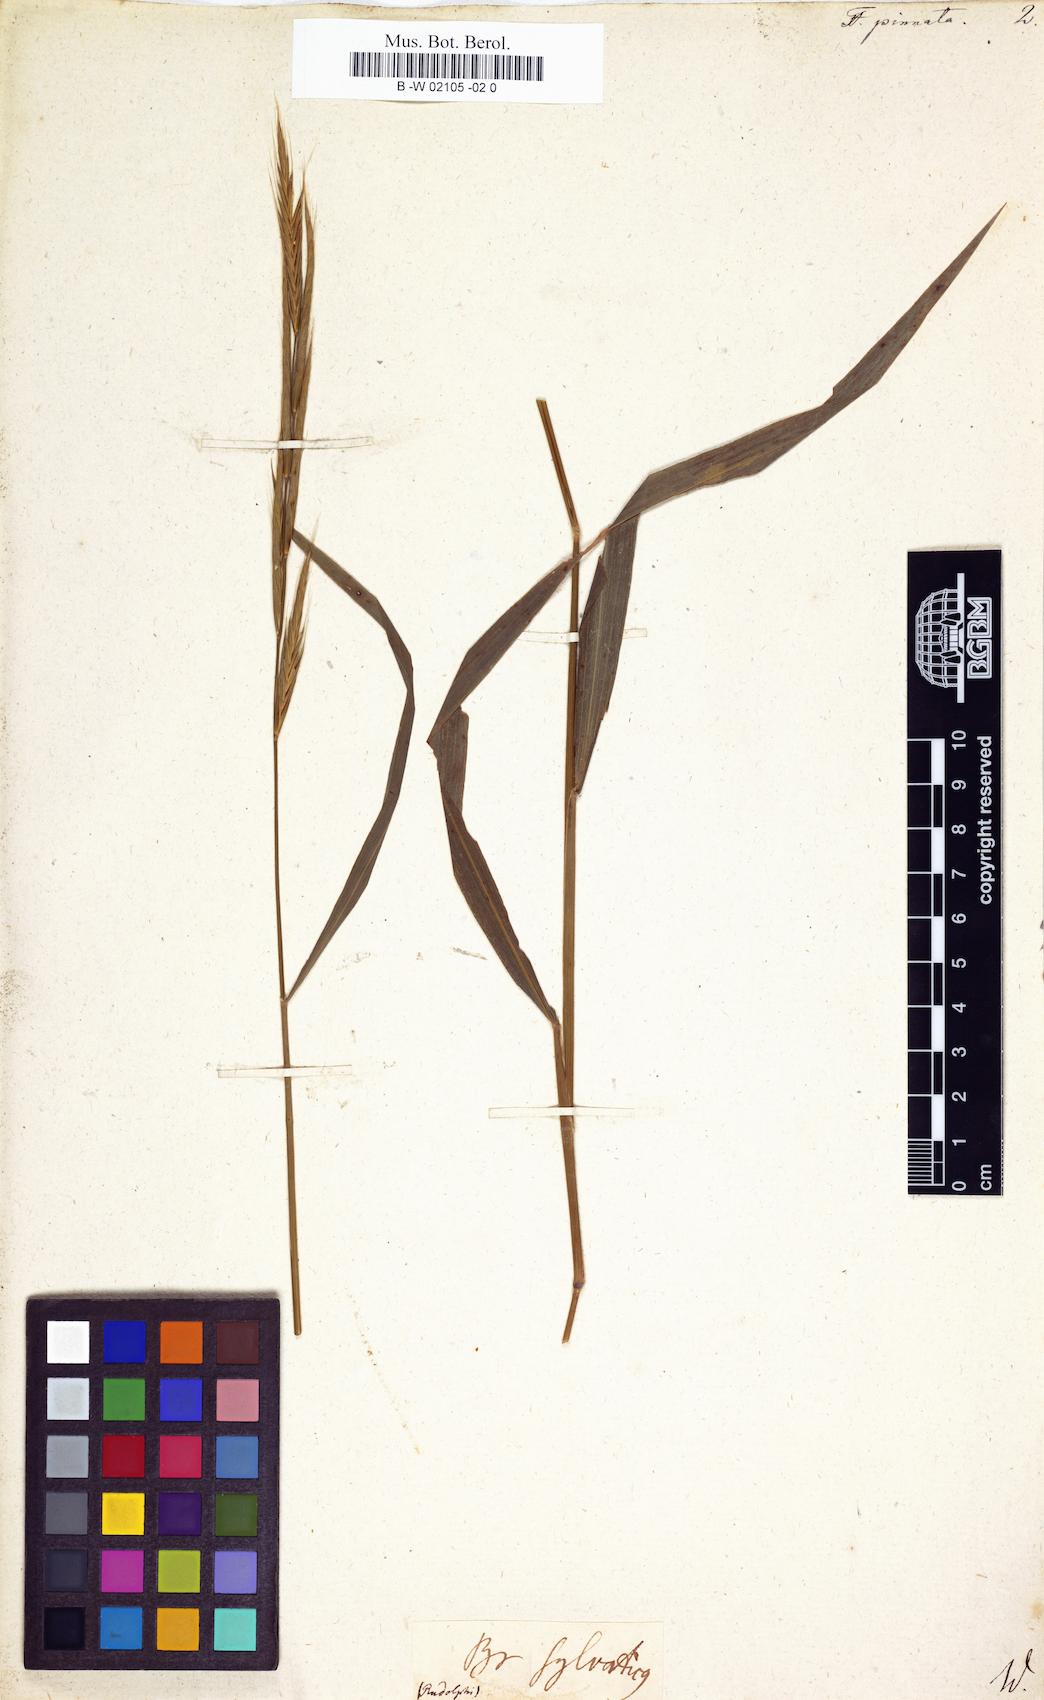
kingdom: Plantae
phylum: Tracheophyta
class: Liliopsida
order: Poales
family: Poaceae
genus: Brachypodium
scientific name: Brachypodium pinnatum
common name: Tor grass
